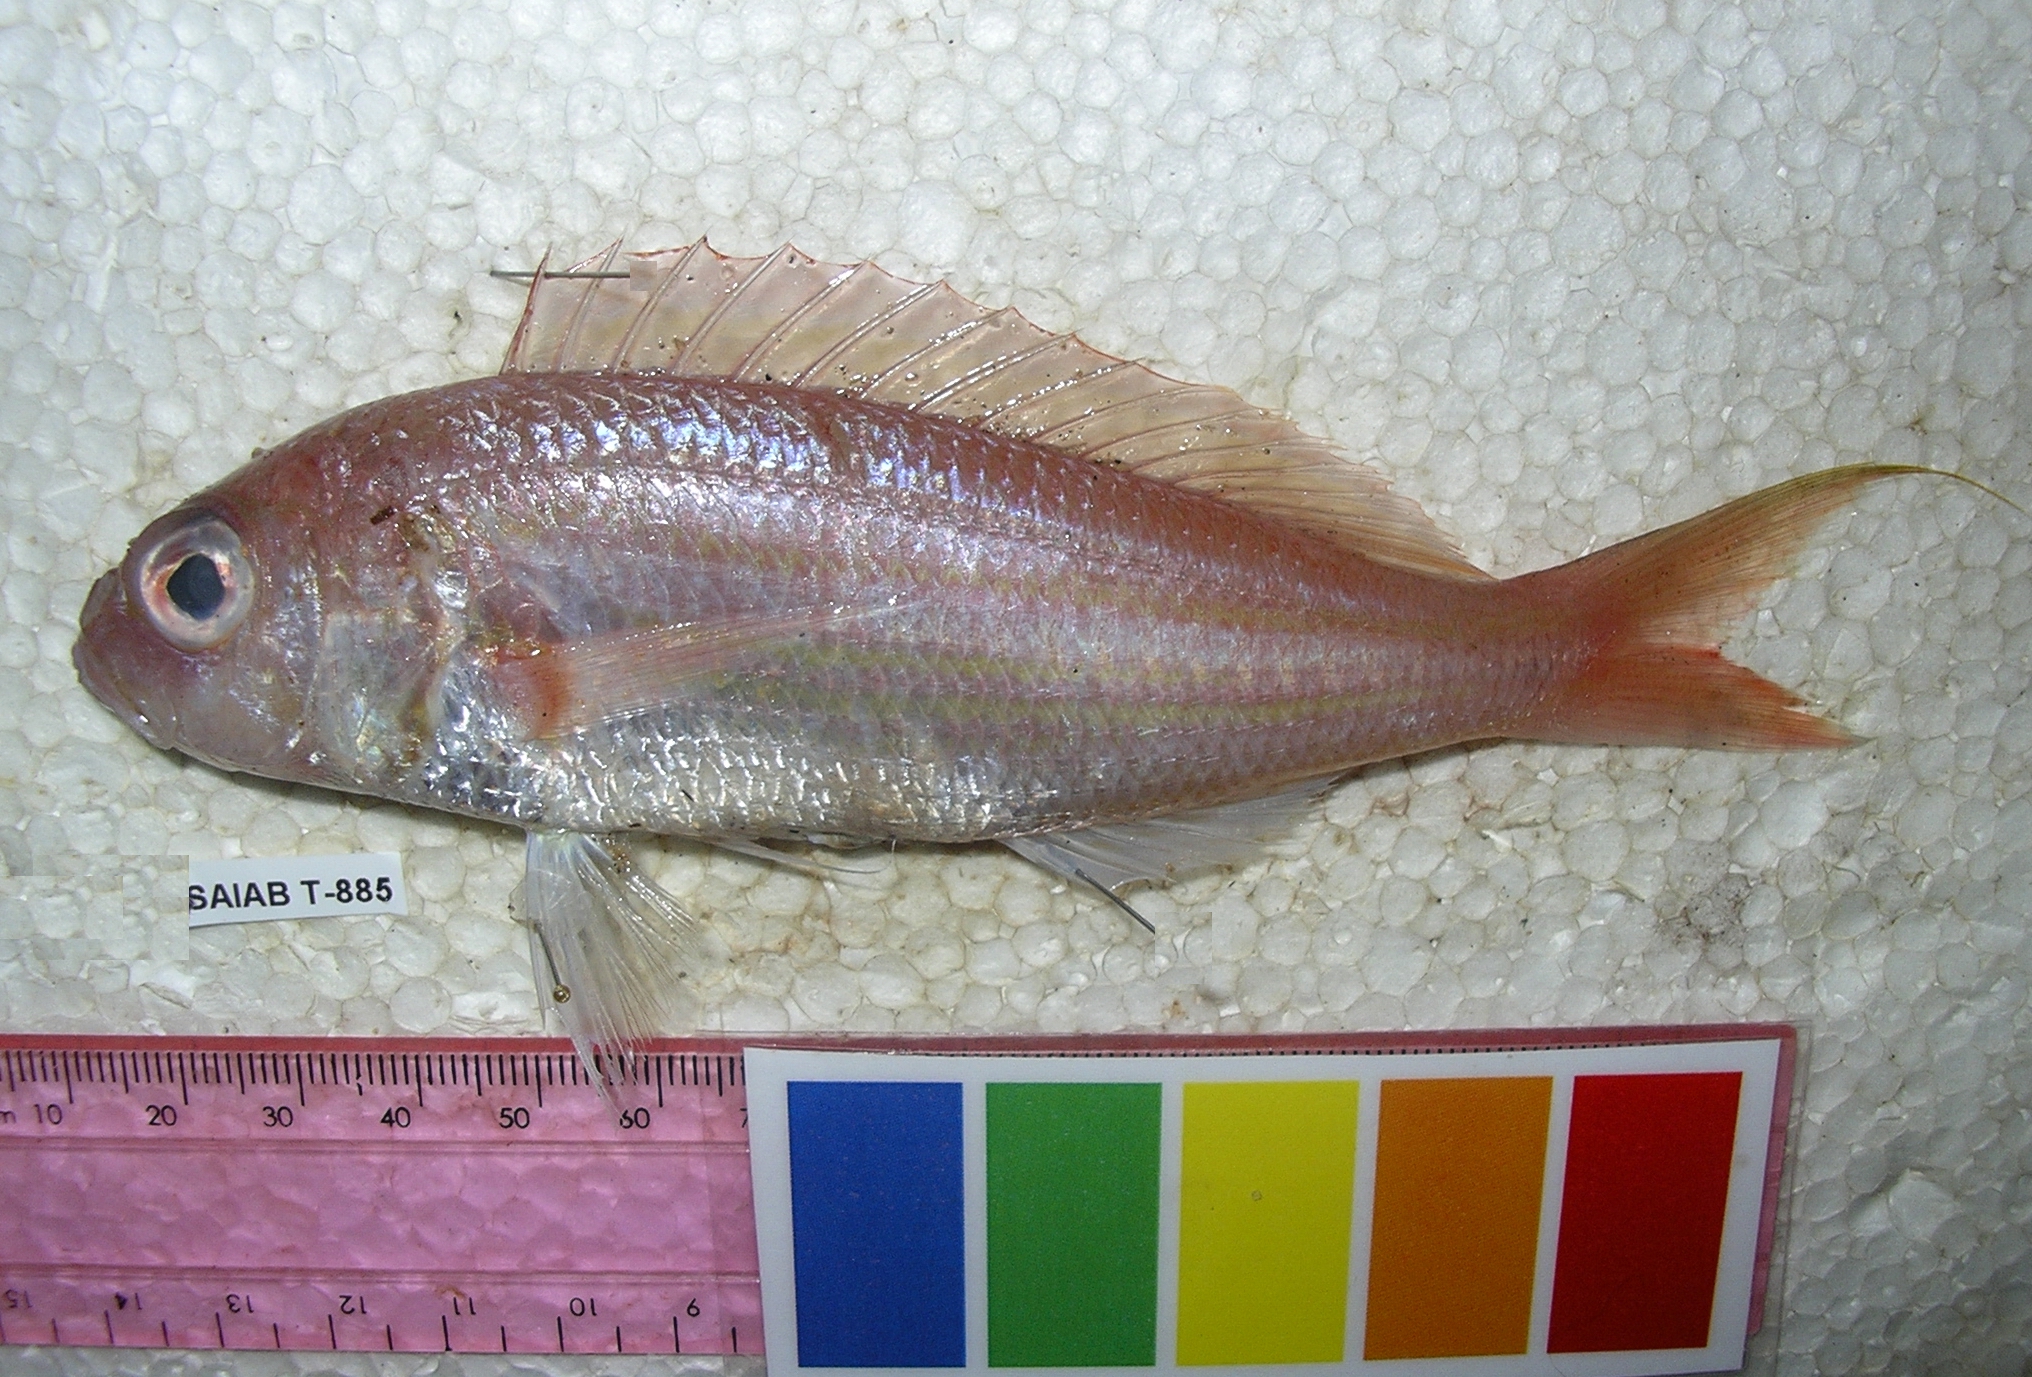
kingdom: Animalia
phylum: Chordata
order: Perciformes
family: Nemipteridae
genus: Nemipterus
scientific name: Nemipterus randalli
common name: Randall's threadfin bream
